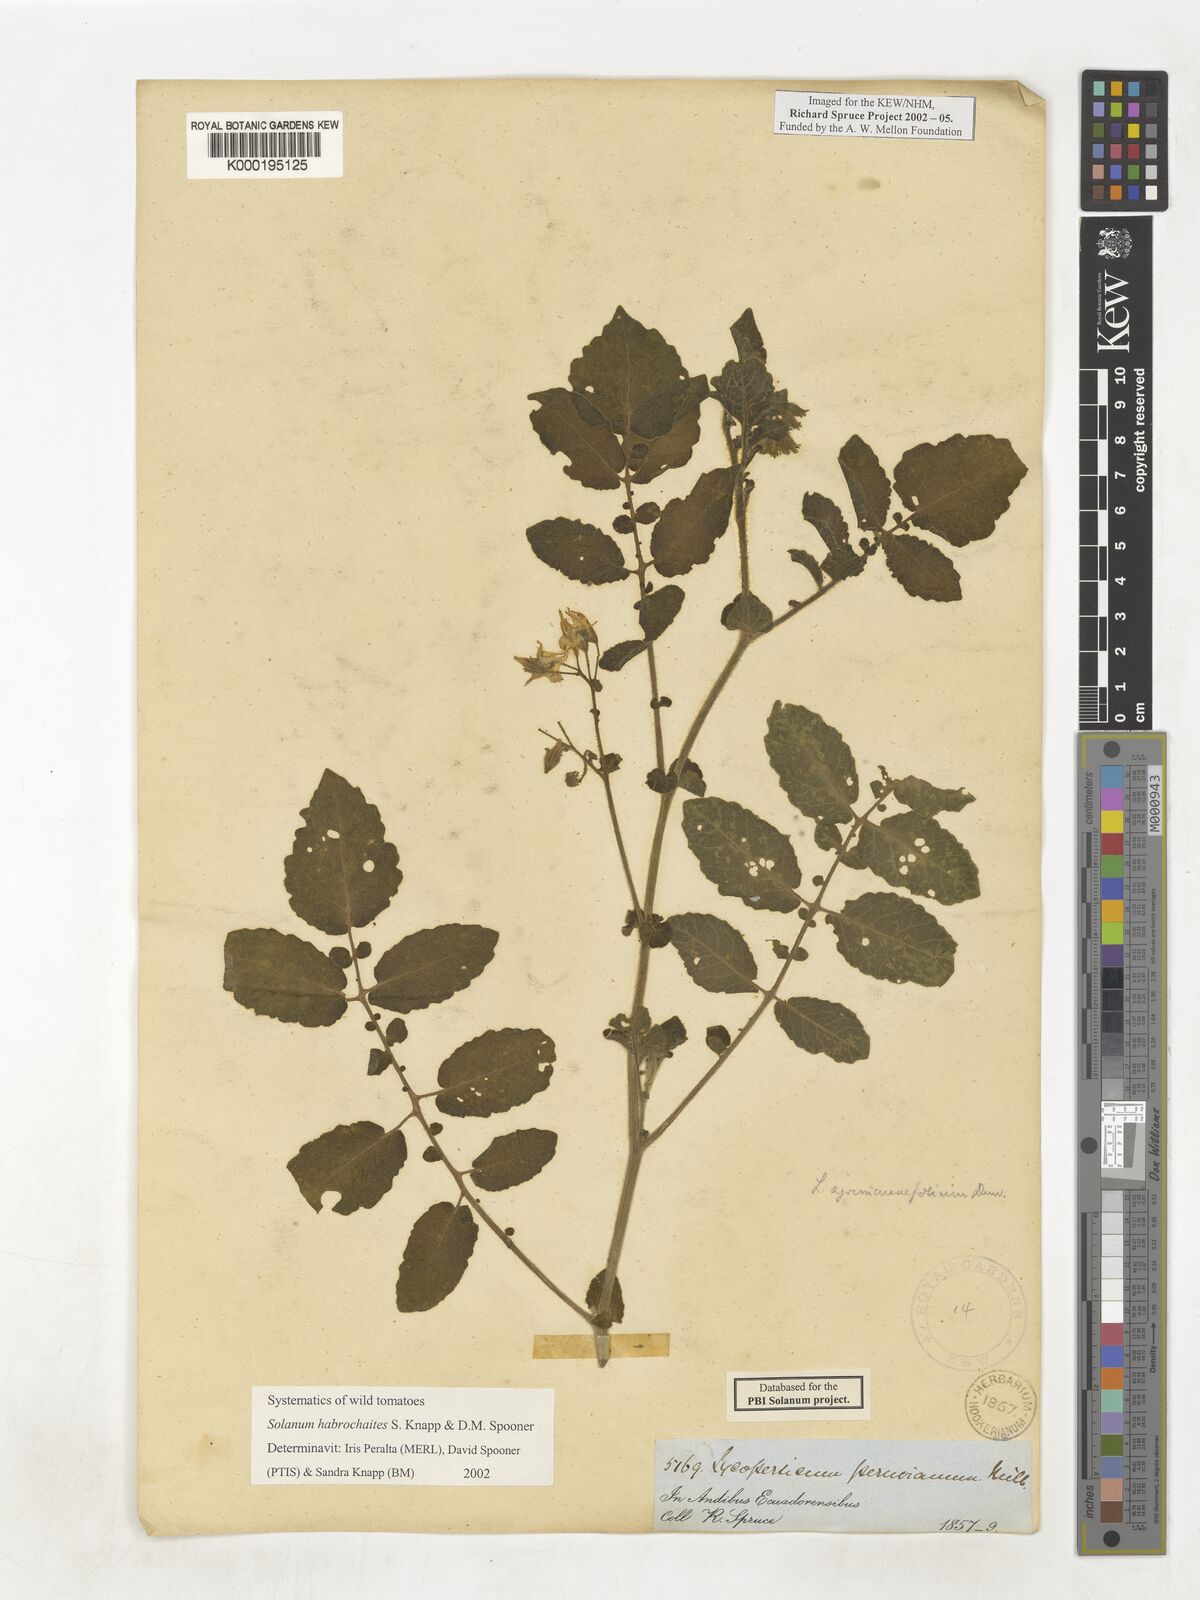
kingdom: Plantae
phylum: Tracheophyta
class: Magnoliopsida
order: Solanales
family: Solanaceae
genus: Solanum
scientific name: Solanum habrochaites
